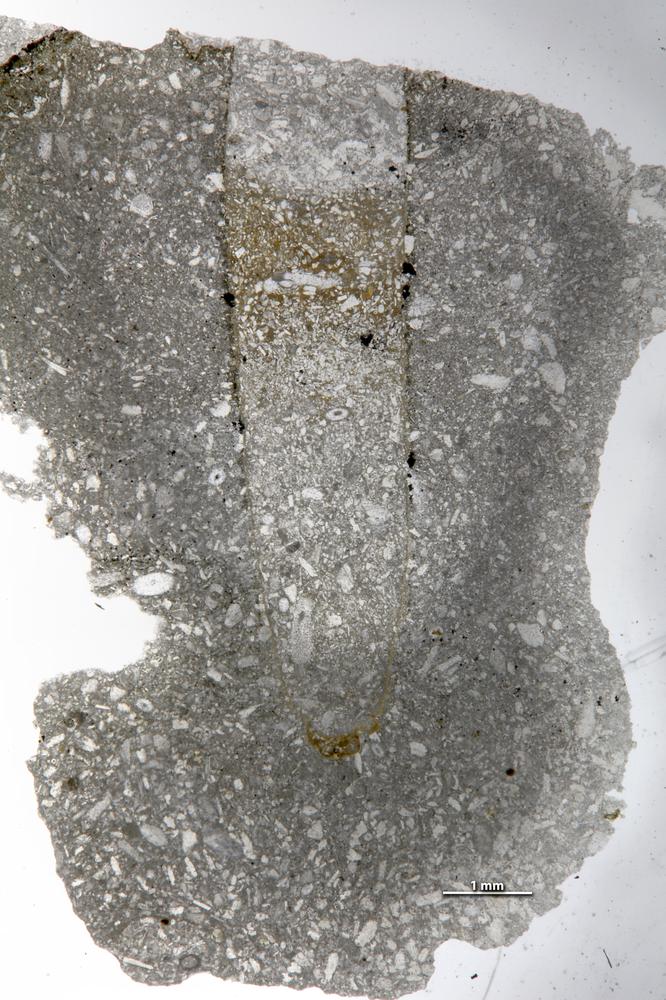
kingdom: Animalia
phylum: Sipuncula
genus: Trypanites
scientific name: Trypanites
